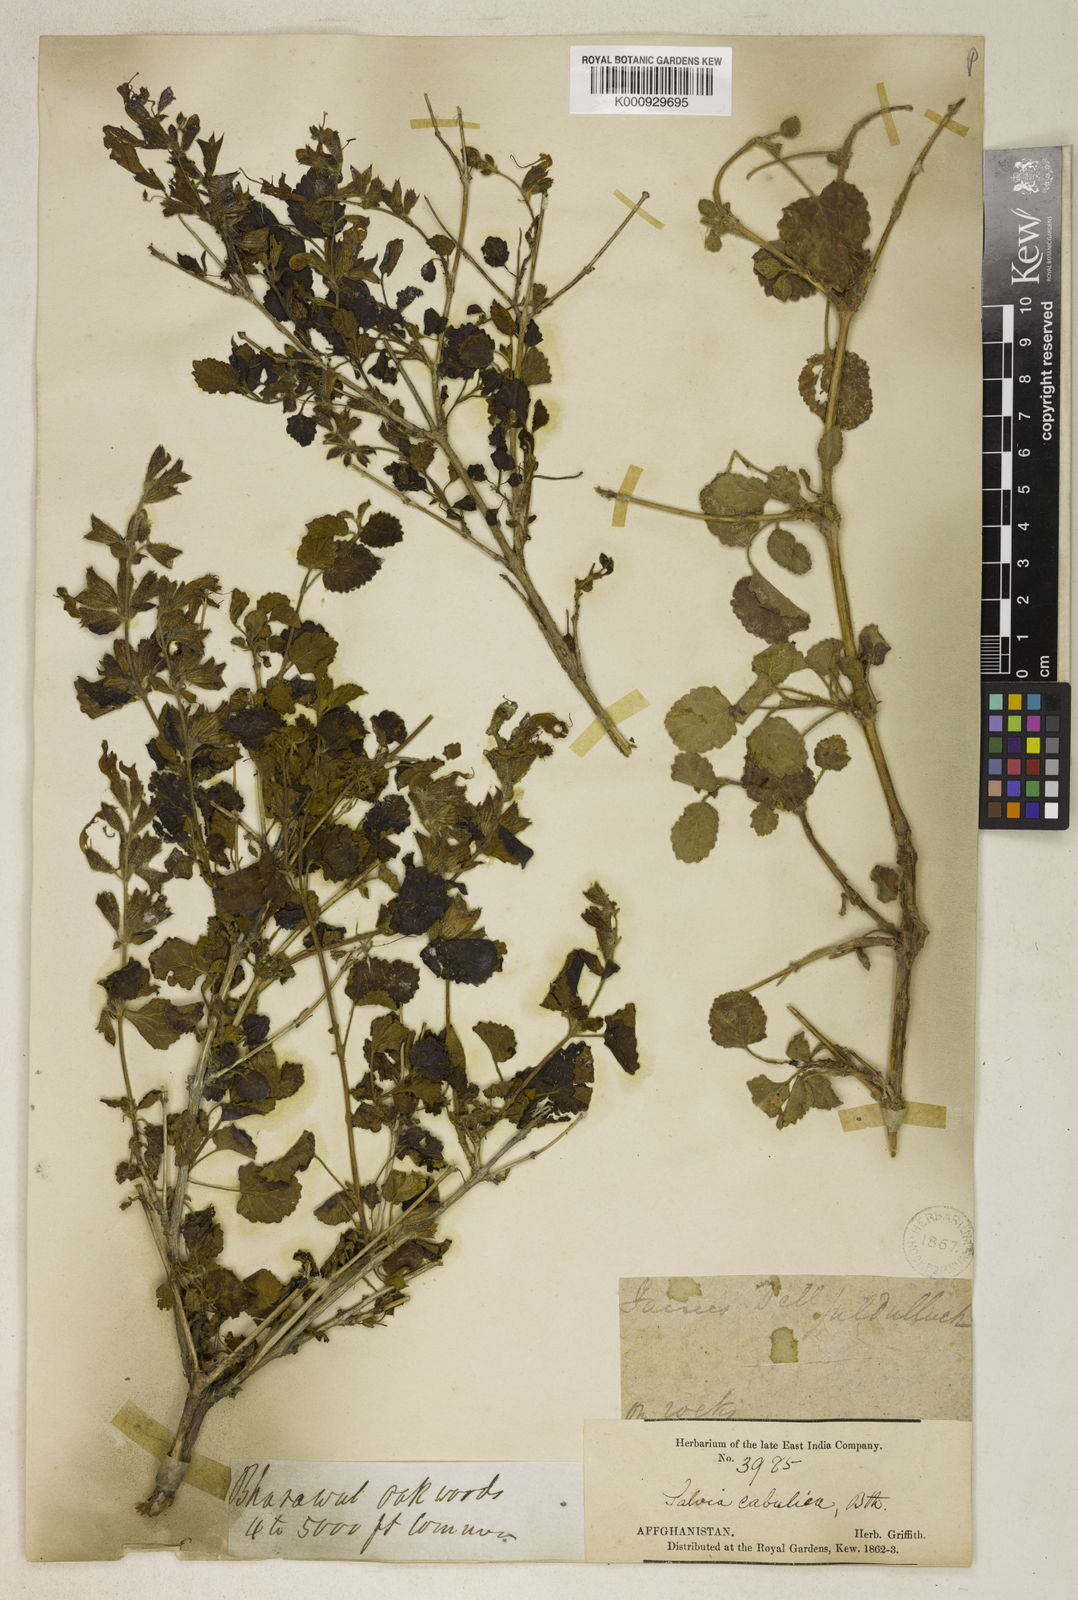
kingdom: Plantae
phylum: Tracheophyta
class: Magnoliopsida
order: Lamiales
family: Lamiaceae
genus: Salvia
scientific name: Salvia cabulica
